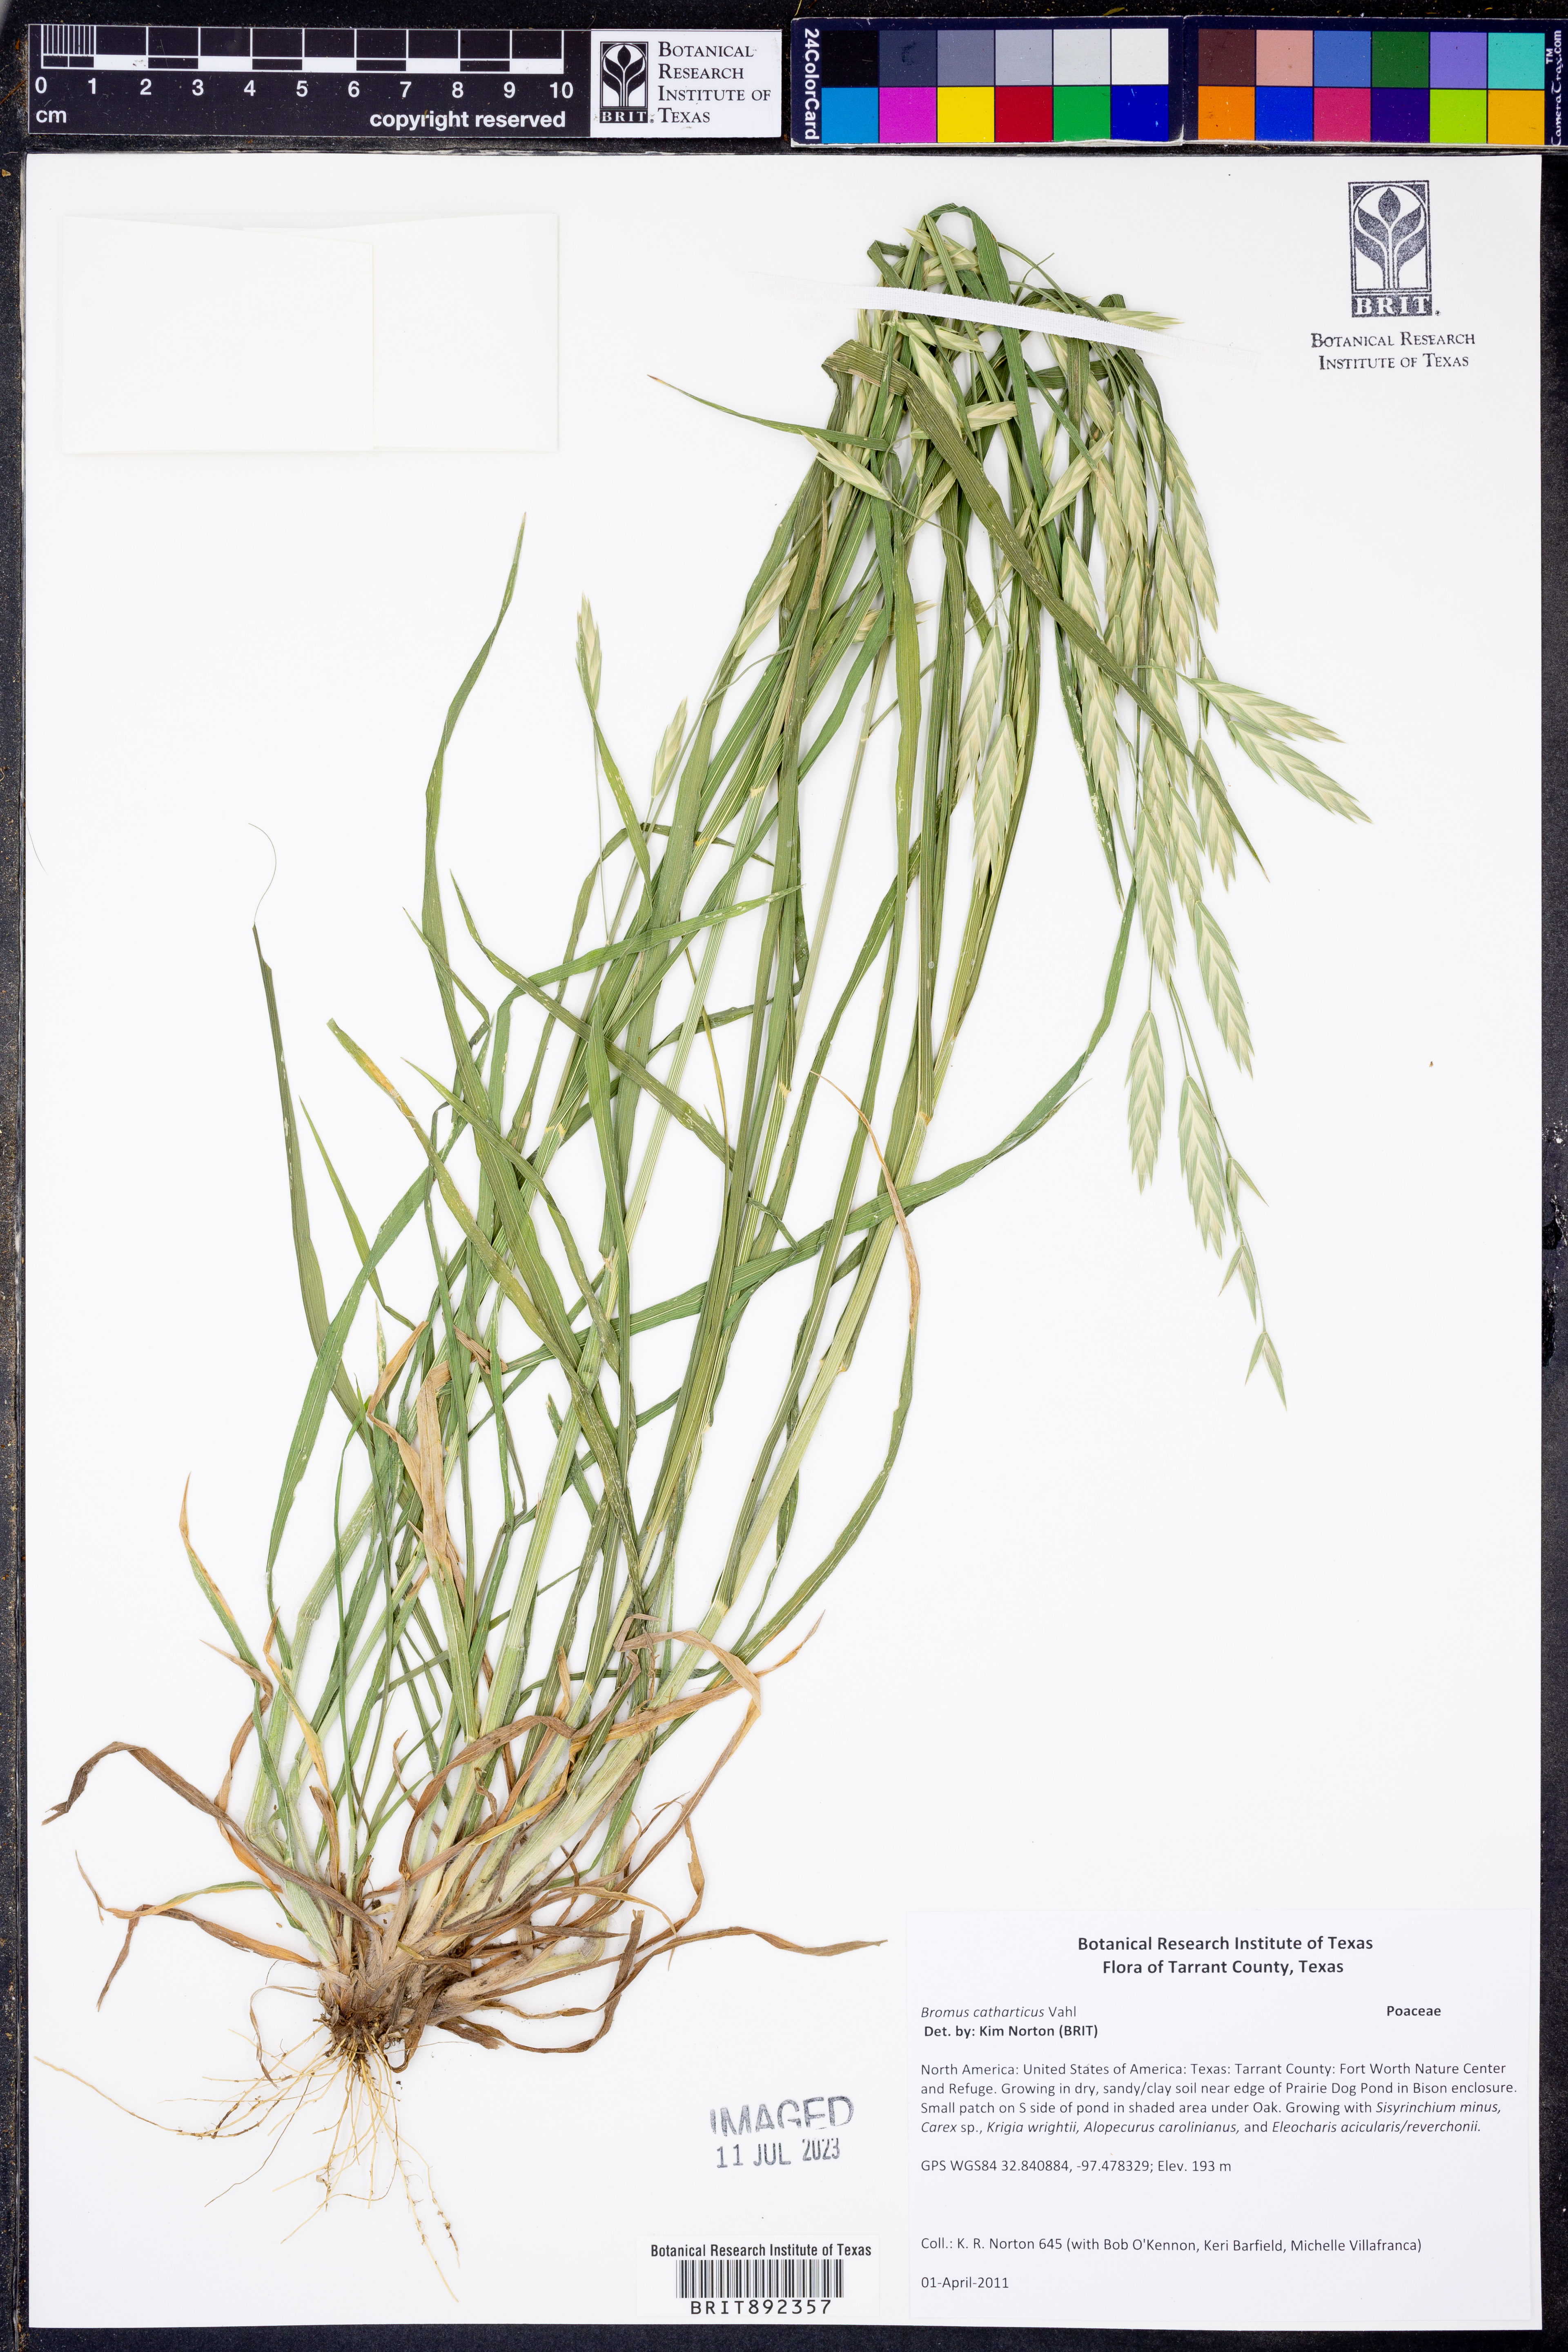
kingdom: Plantae
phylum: Tracheophyta
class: Liliopsida
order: Poales
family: Poaceae
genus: Bromus
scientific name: Bromus catharticus
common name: Rescuegrass
